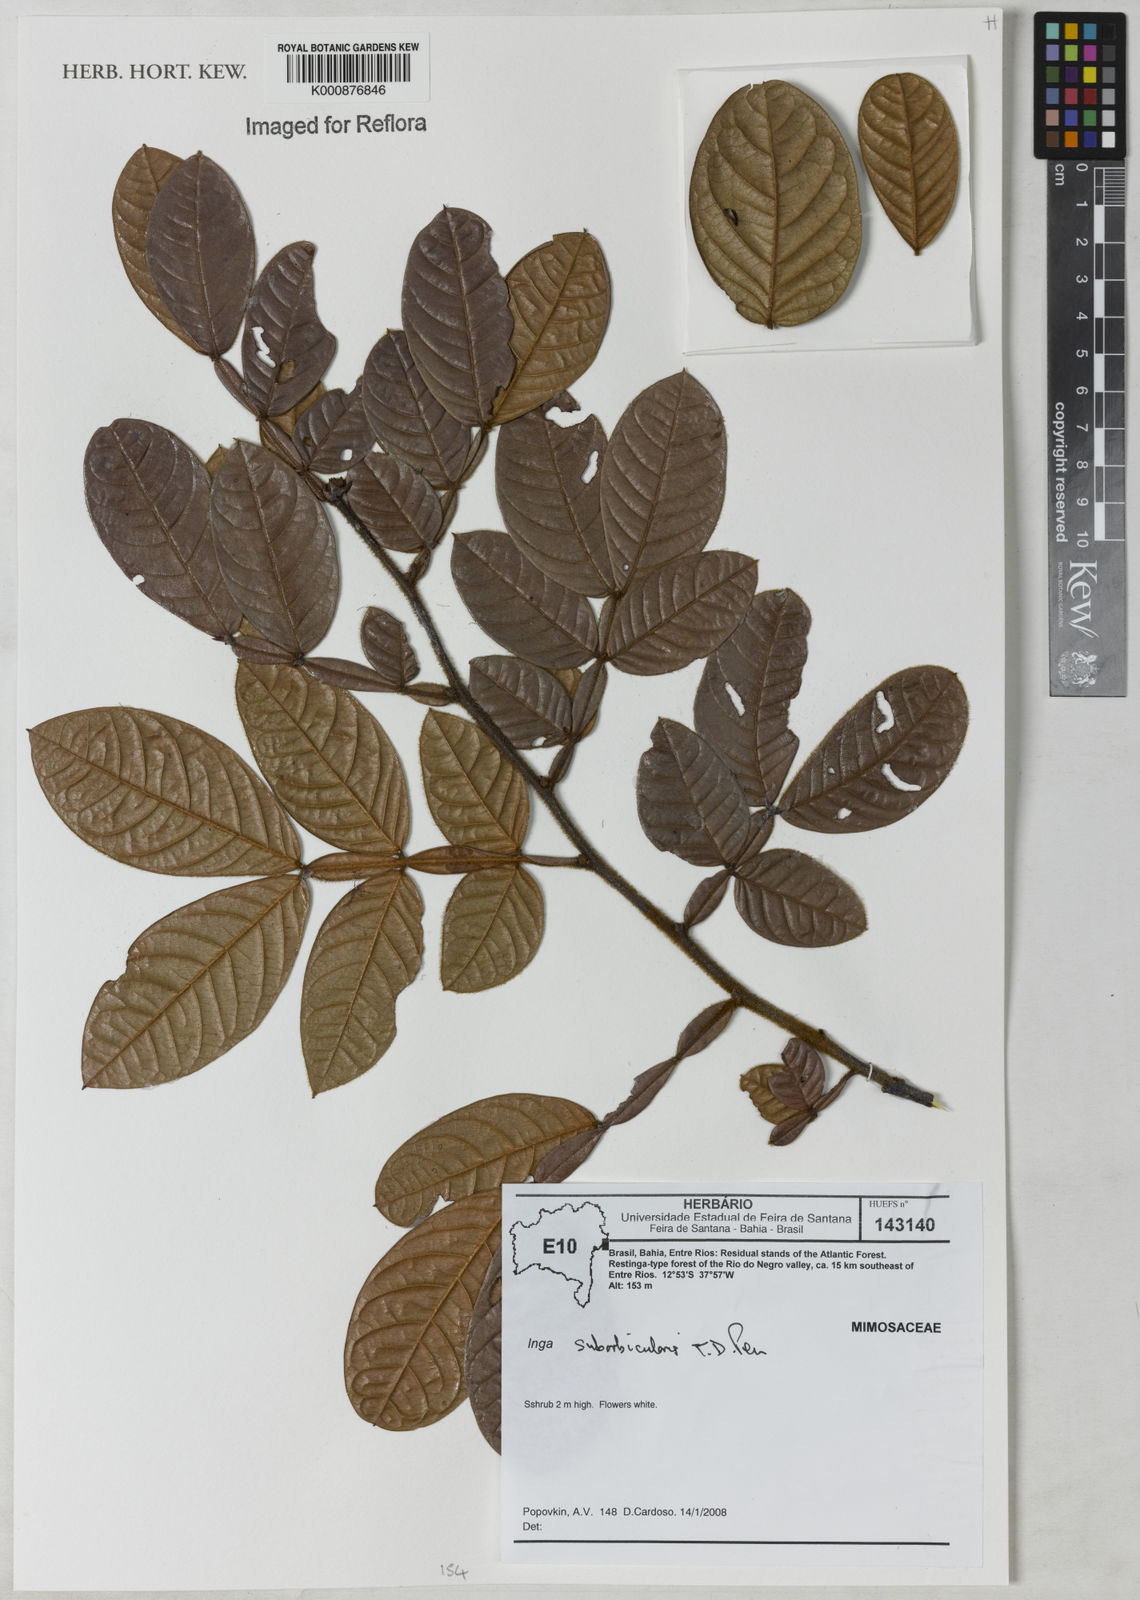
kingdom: Plantae
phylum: Tracheophyta
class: Magnoliopsida
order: Fabales
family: Fabaceae
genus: Inga
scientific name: Inga suborbicularis
